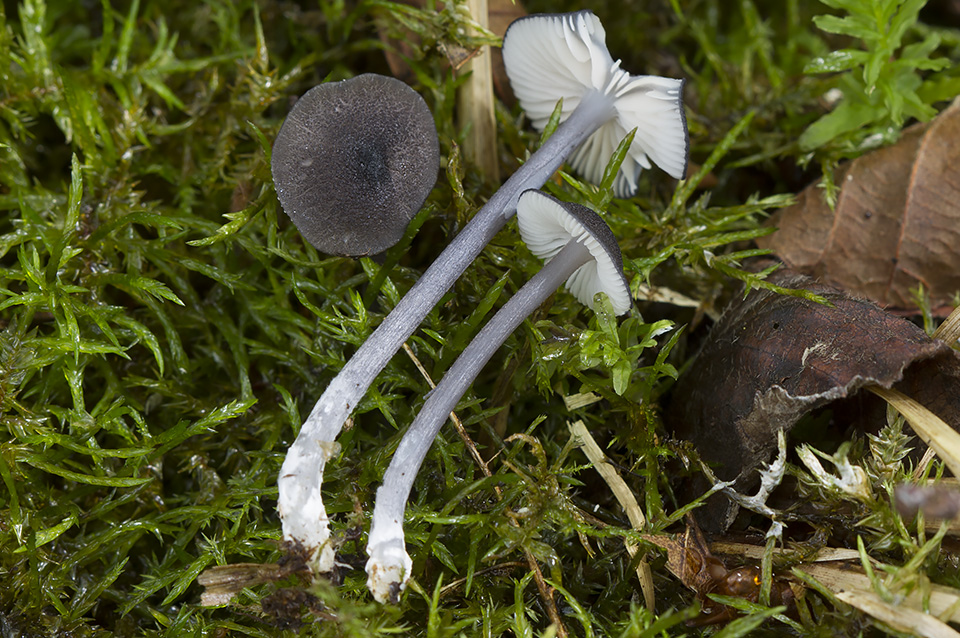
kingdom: Fungi
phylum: Basidiomycota
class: Agaricomycetes
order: Agaricales
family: Entolomataceae
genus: Entoloma
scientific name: Entoloma nordlandicum
